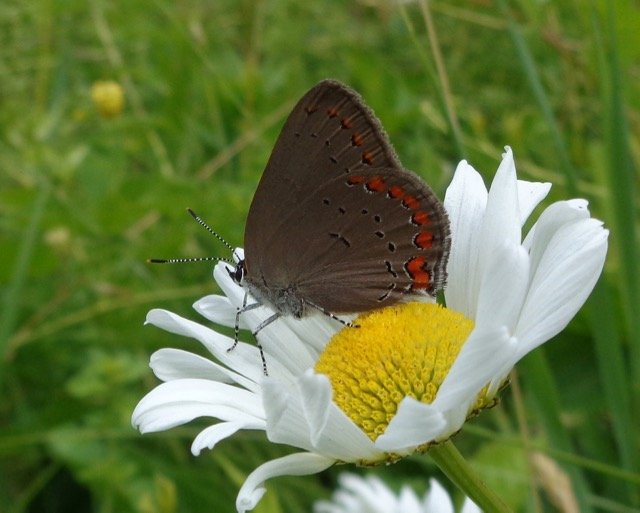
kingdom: Animalia
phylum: Arthropoda
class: Insecta
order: Lepidoptera
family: Lycaenidae
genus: Harkenclenus
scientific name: Harkenclenus titus
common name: Coral Hairstreak
